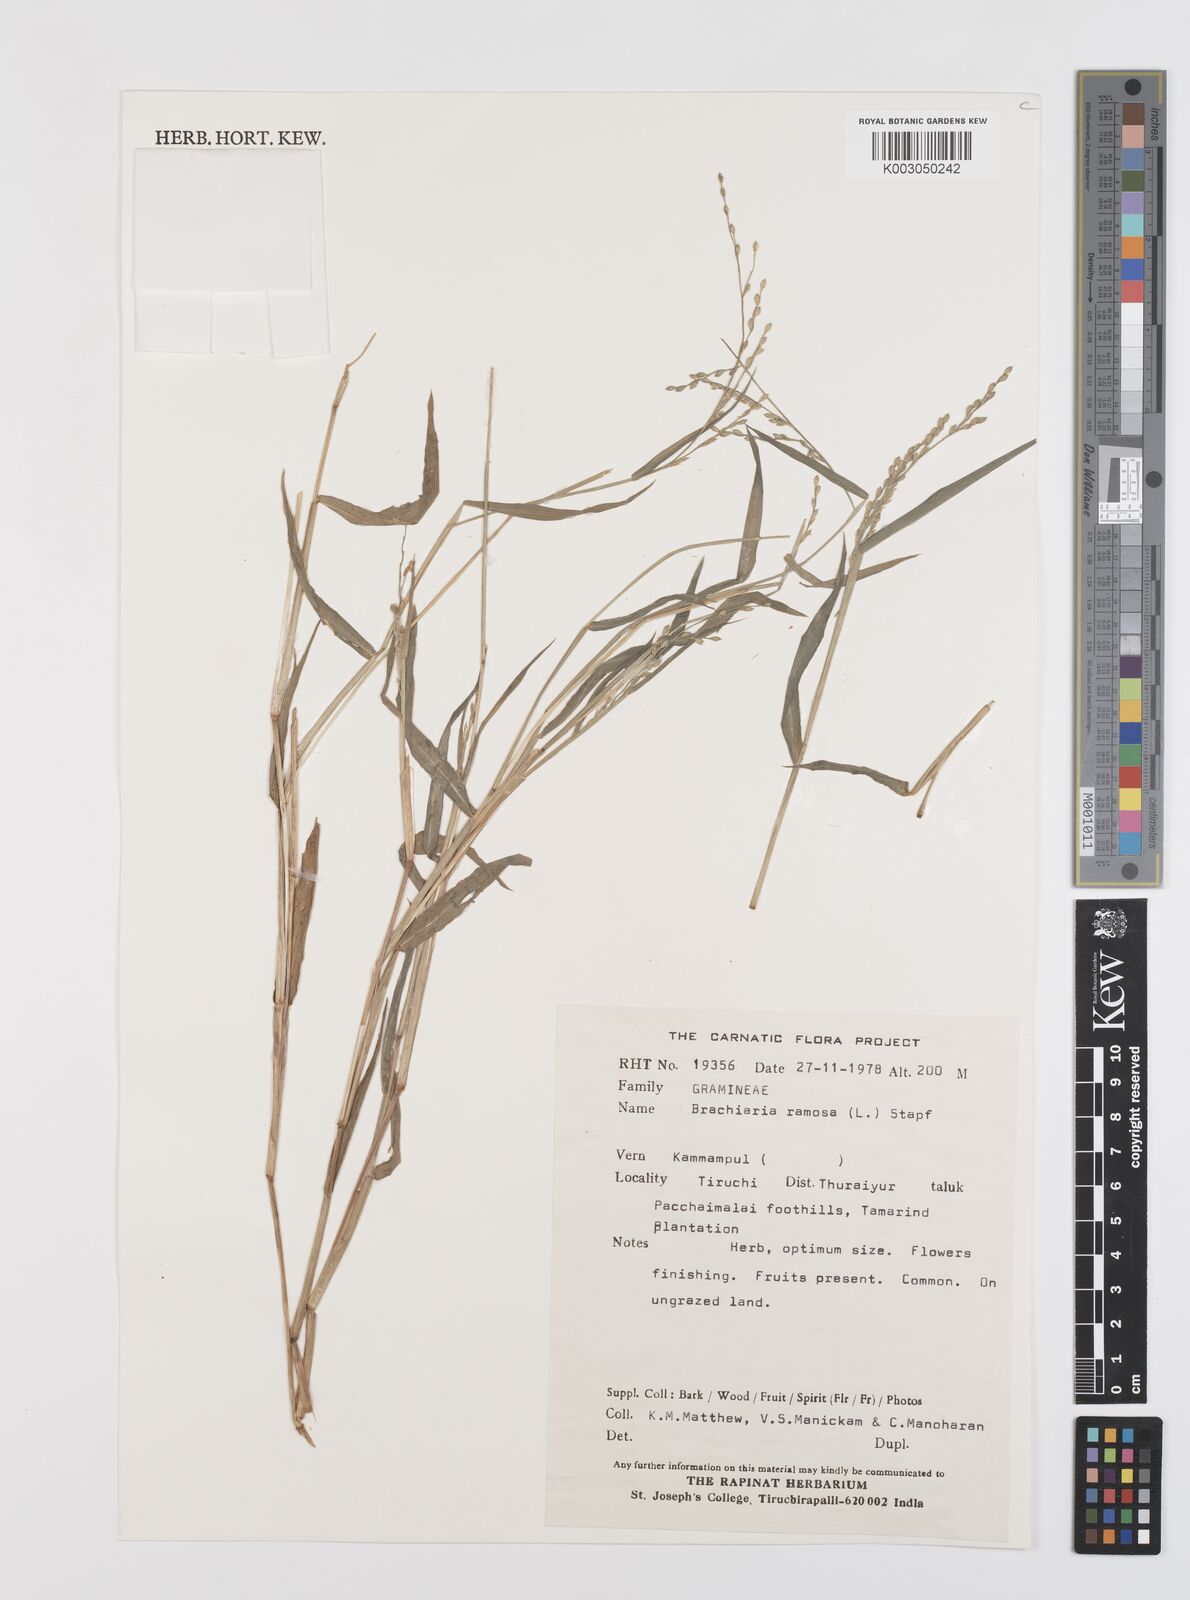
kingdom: Plantae
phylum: Tracheophyta
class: Liliopsida
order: Poales
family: Poaceae
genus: Urochloa
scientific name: Urochloa ramosa
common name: Browntop millet
